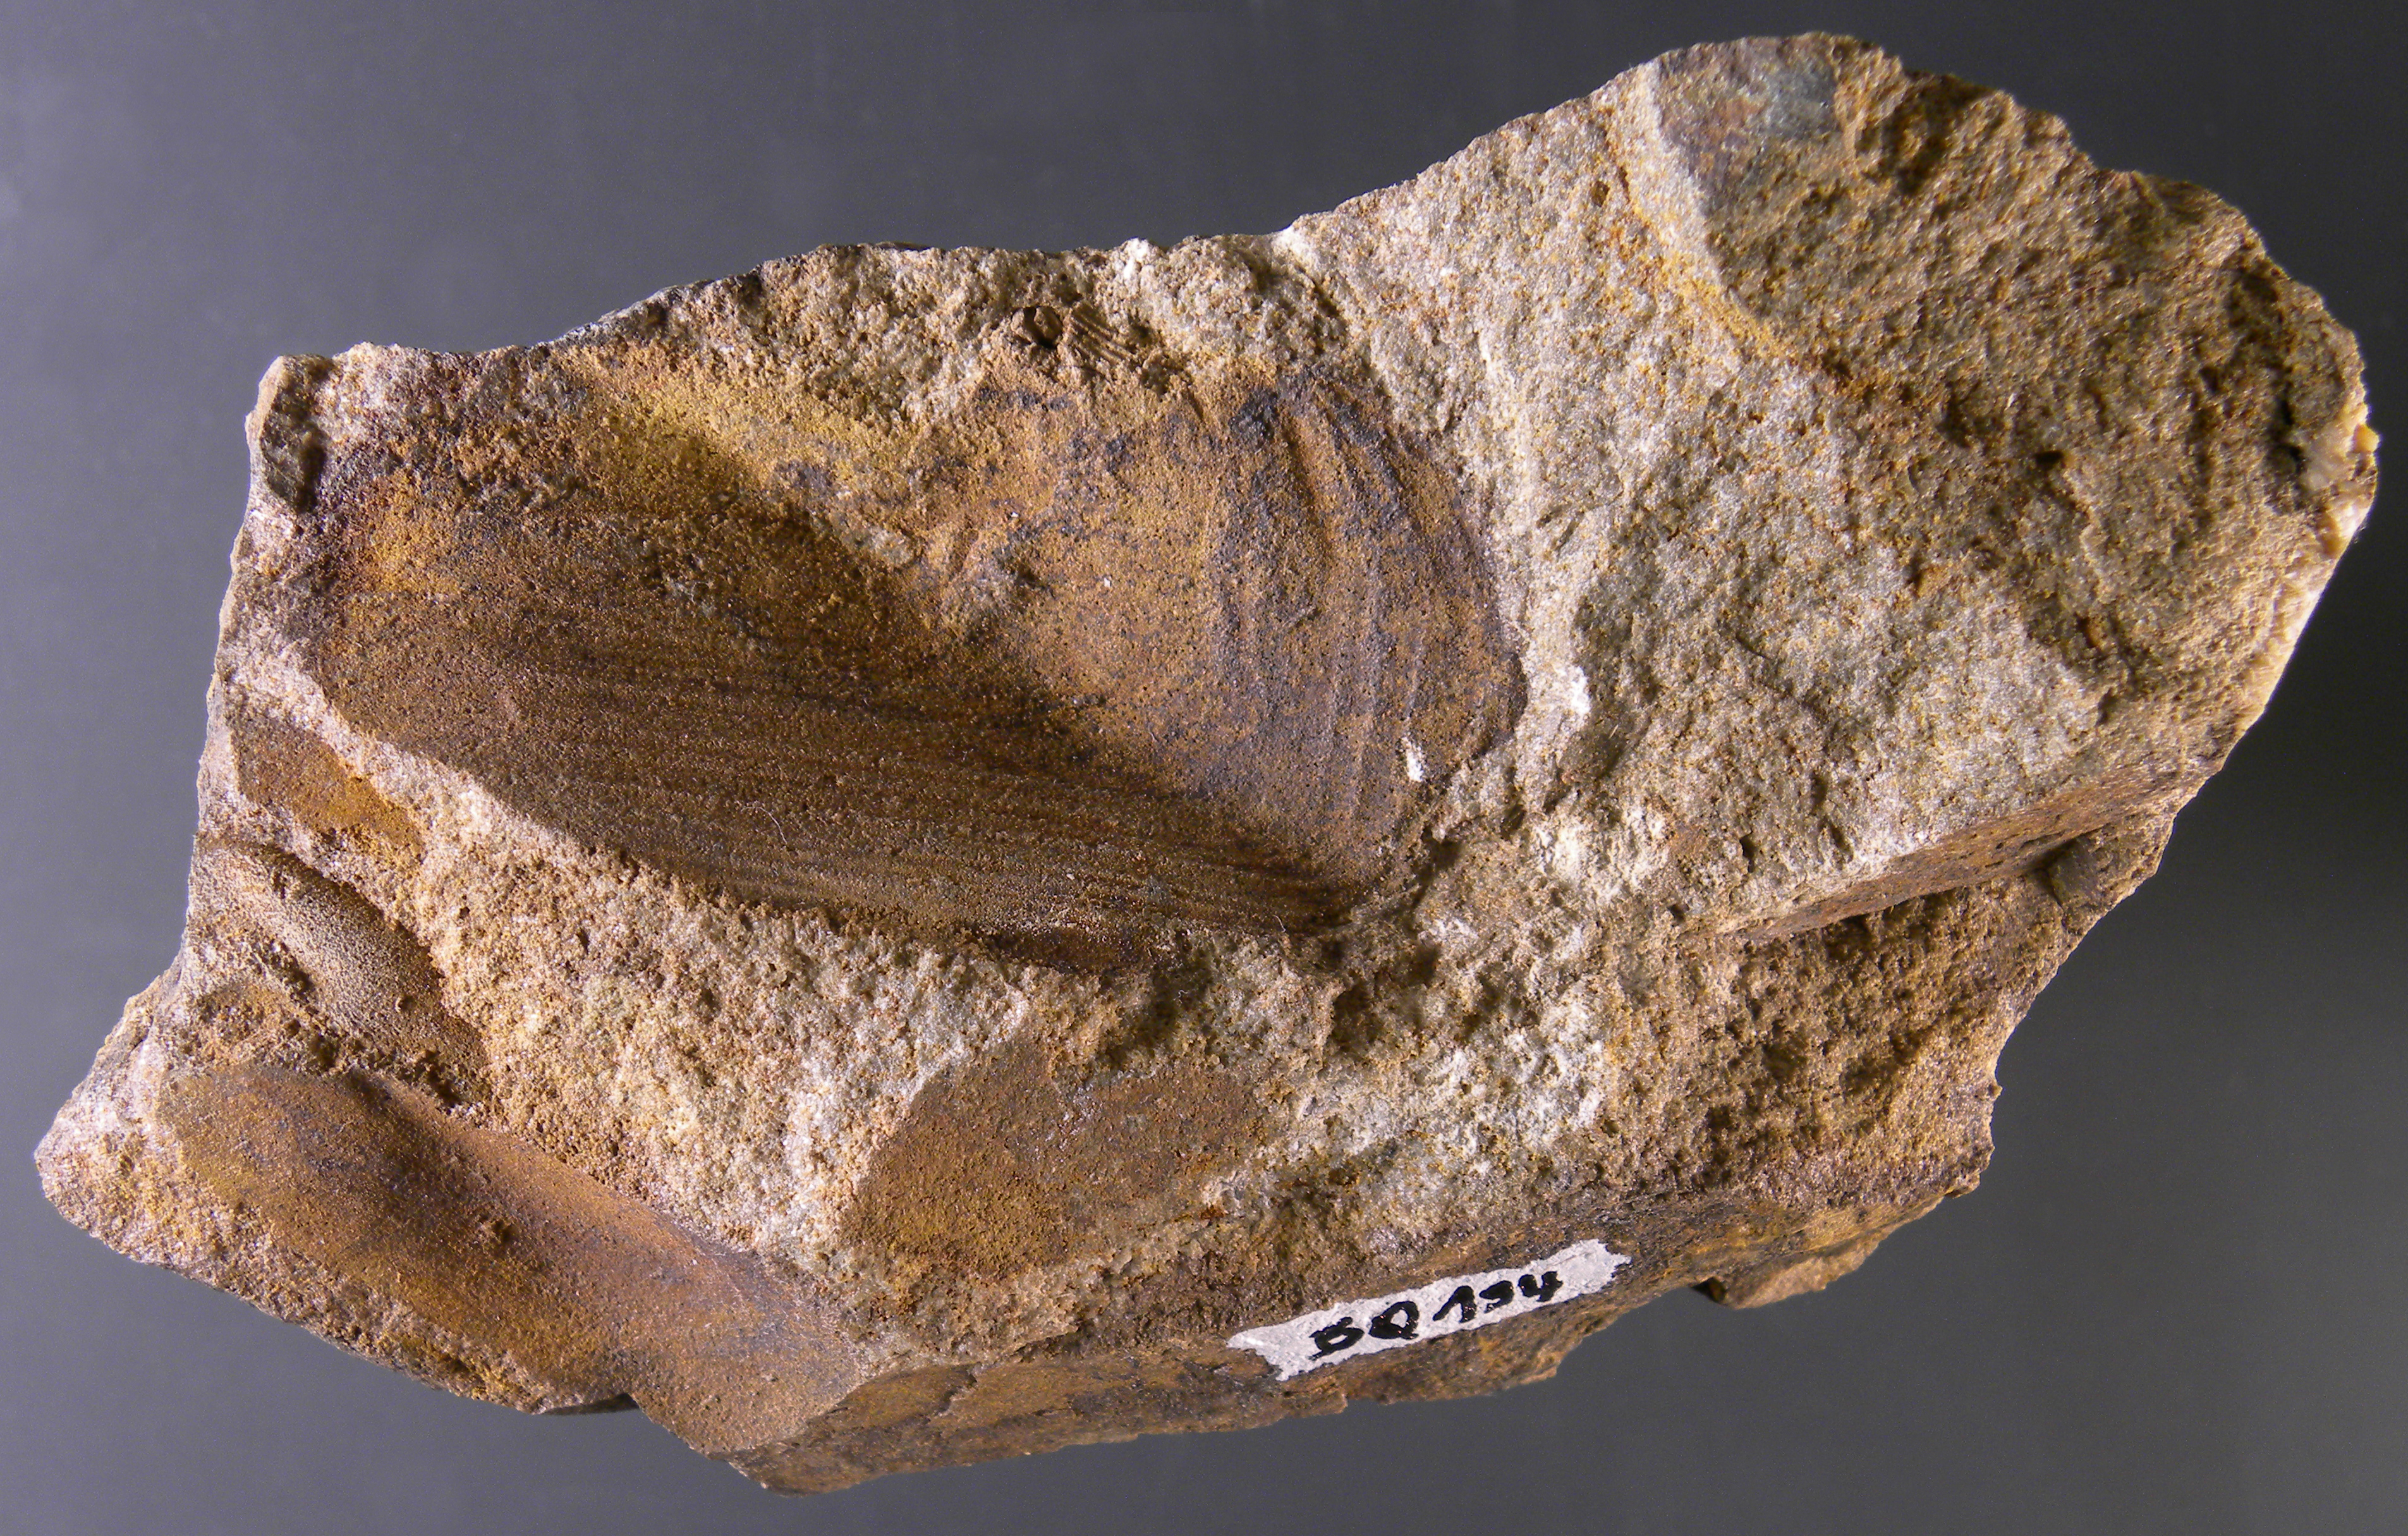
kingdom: Animalia
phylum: Mollusca
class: Bivalvia
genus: Phorinoplax
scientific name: Phorinoplax
